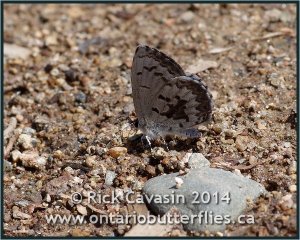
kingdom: Animalia
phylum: Arthropoda
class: Insecta
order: Lepidoptera
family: Lycaenidae
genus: Celastrina
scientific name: Celastrina lucia
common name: Northern Spring Azure
